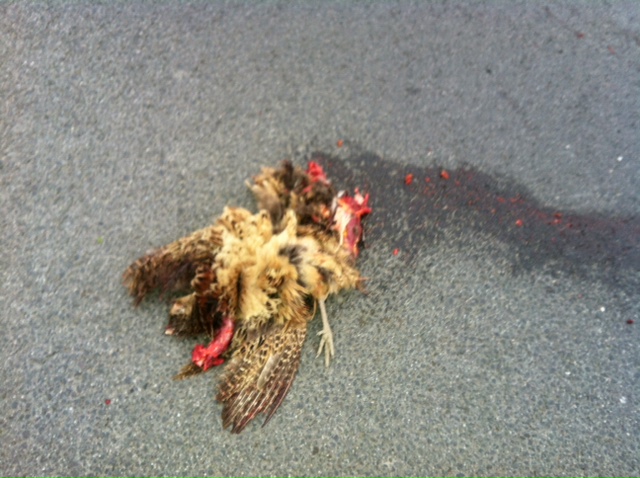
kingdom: Animalia
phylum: Chordata
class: Aves
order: Galliformes
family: Phasianidae
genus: Phasianus
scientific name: Phasianus colchicus
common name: Common pheasant
